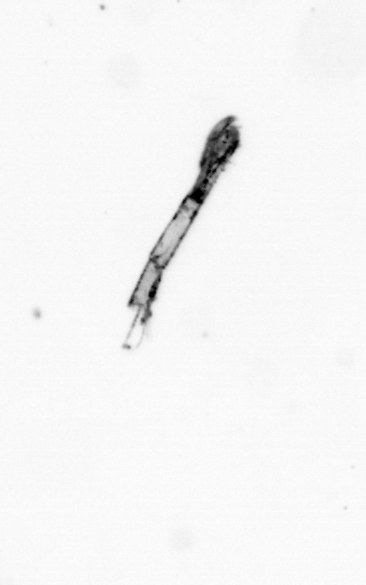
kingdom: Bacteria
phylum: Cyanobacteria
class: Cyanobacteriia
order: Cyanobacteriales
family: Microcoleaceae
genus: Trichodesmium
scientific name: Trichodesmium
